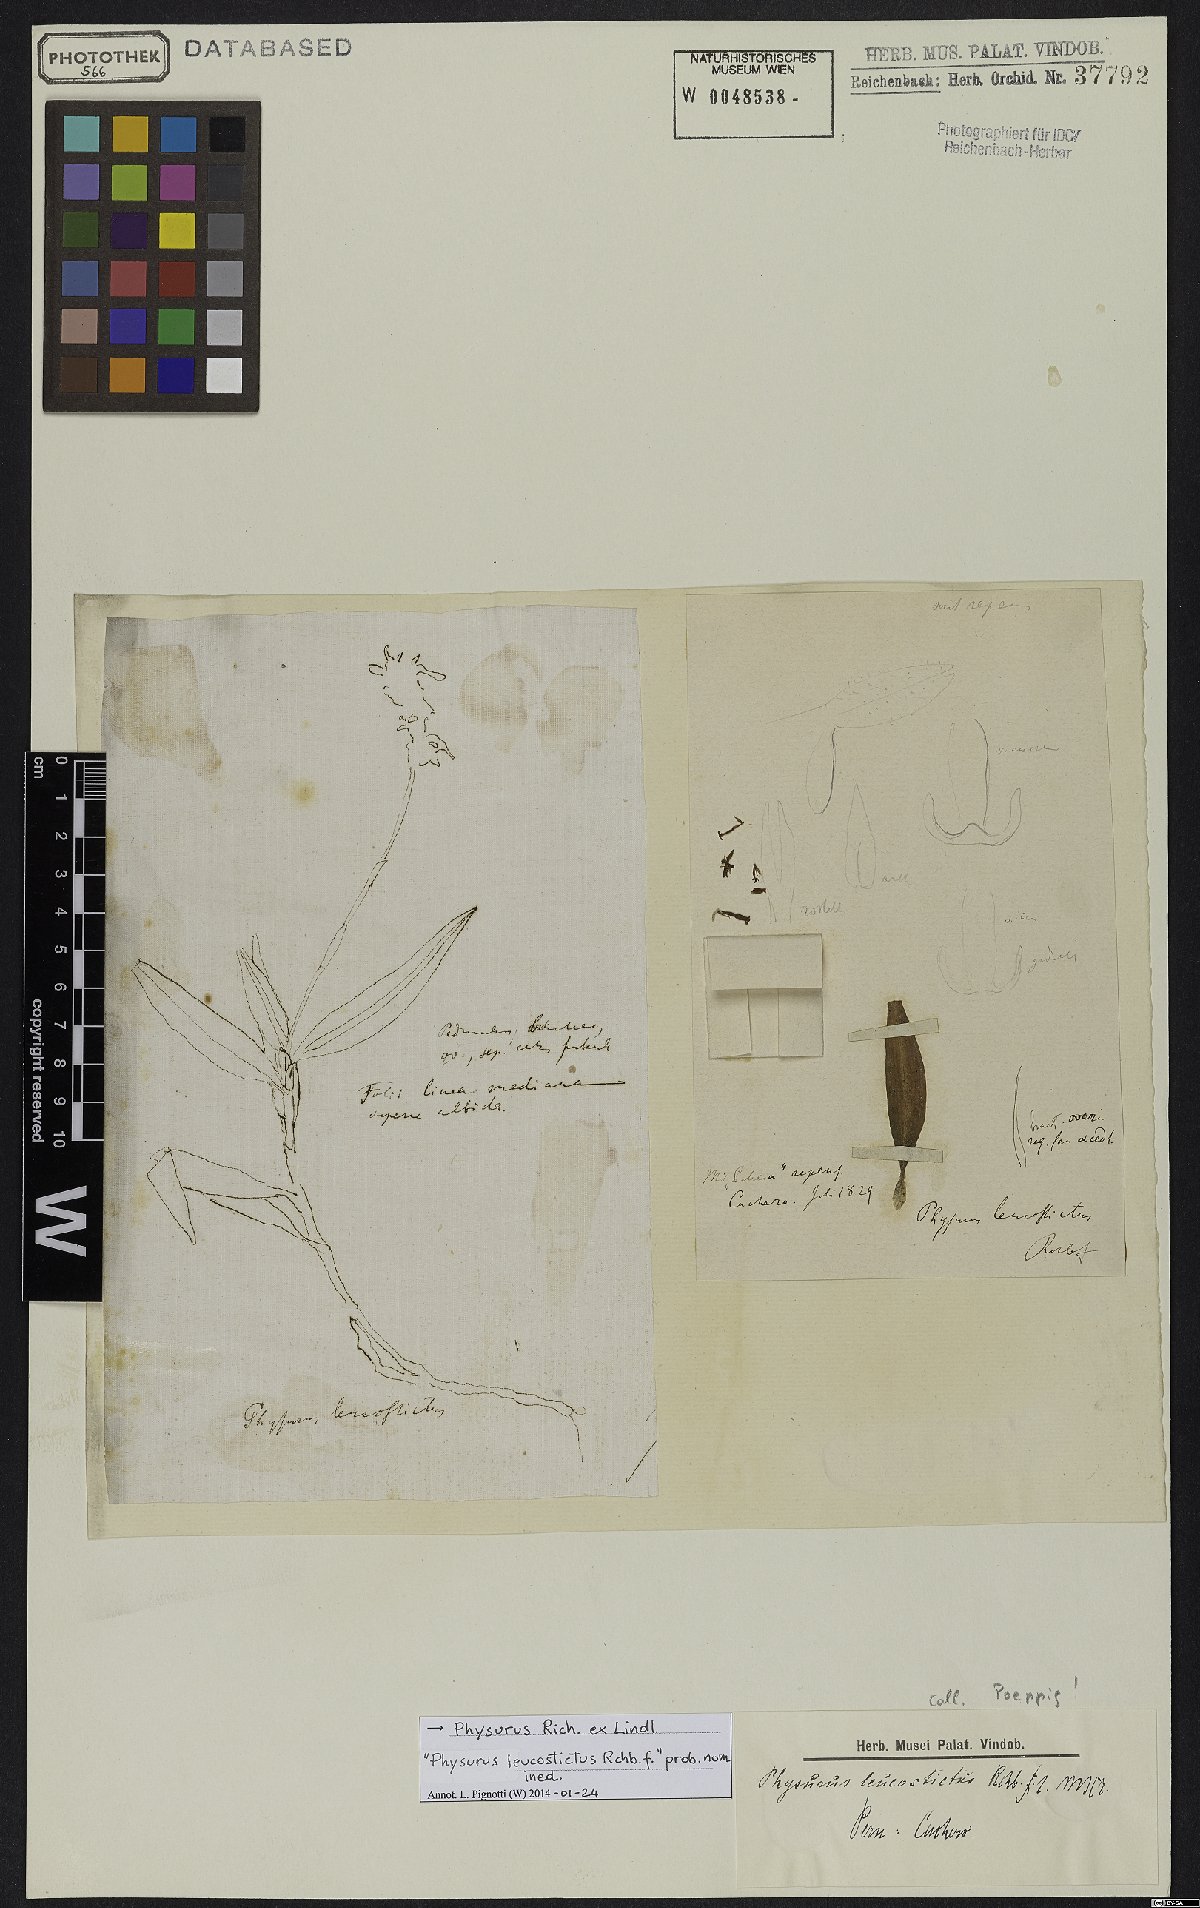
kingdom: Plantae
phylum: Tracheophyta
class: Liliopsida
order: Asparagales
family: Orchidaceae
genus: Erythrodes
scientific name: Erythrodes
